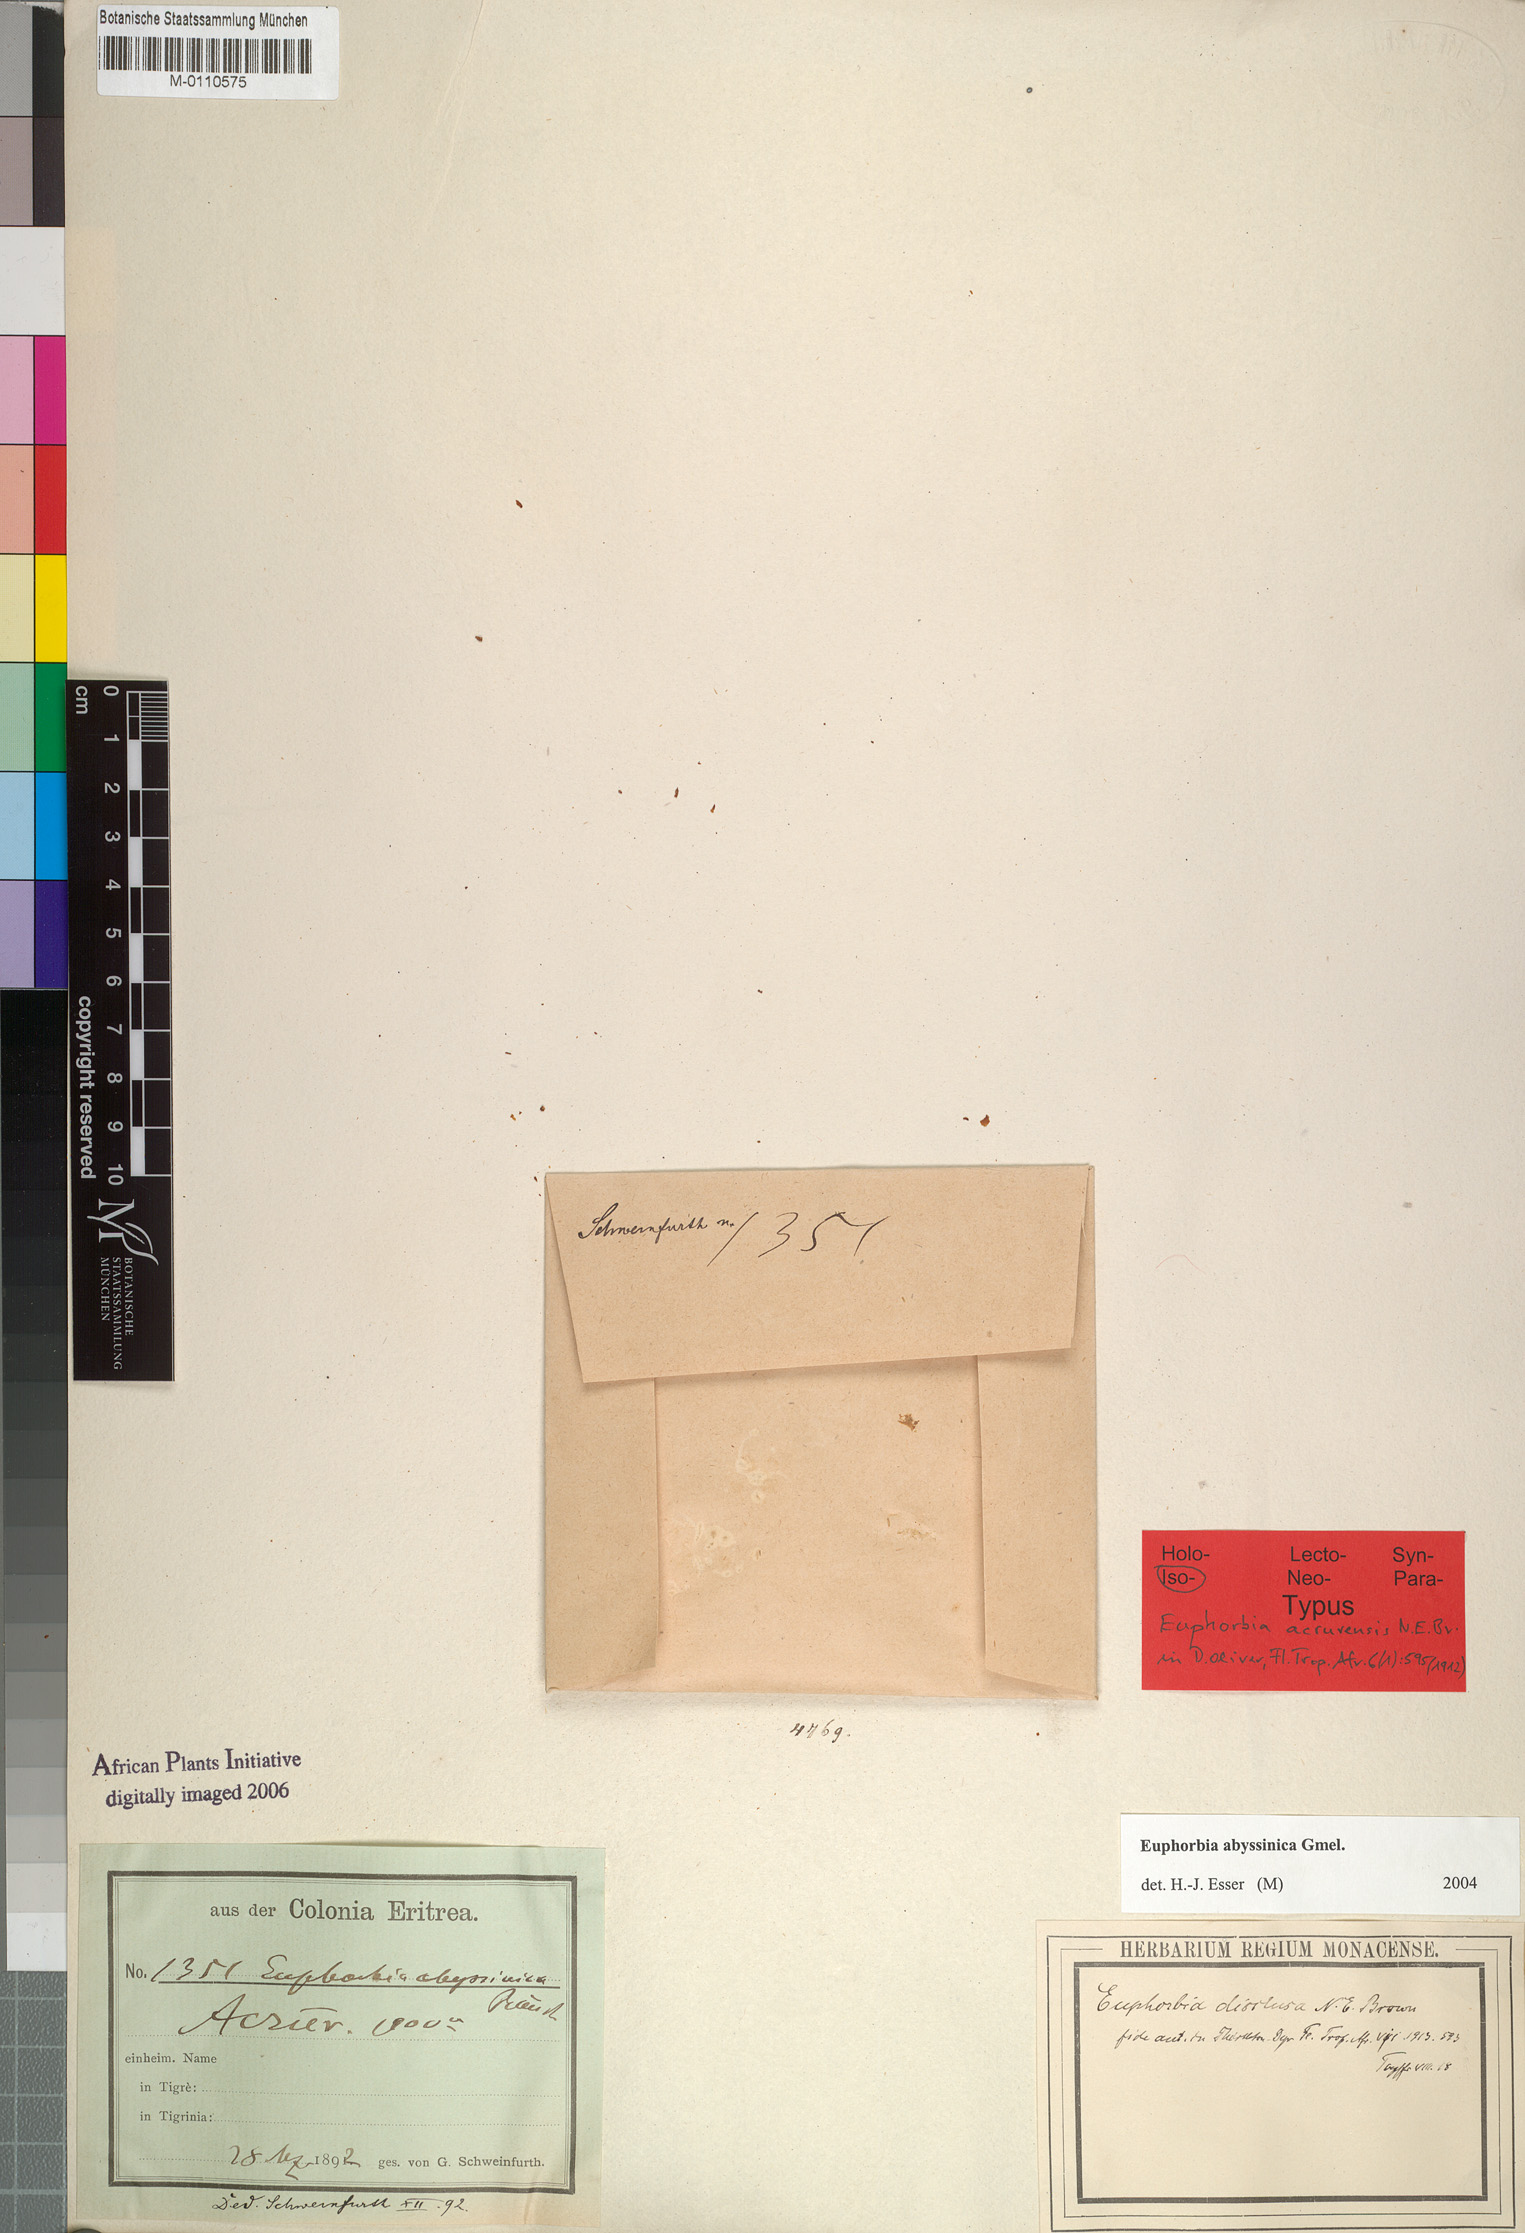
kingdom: Plantae
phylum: Tracheophyta
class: Magnoliopsida
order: Malpighiales
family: Euphorbiaceae
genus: Euphorbia
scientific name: Euphorbia abyssinica
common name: Abyssinian spurge
